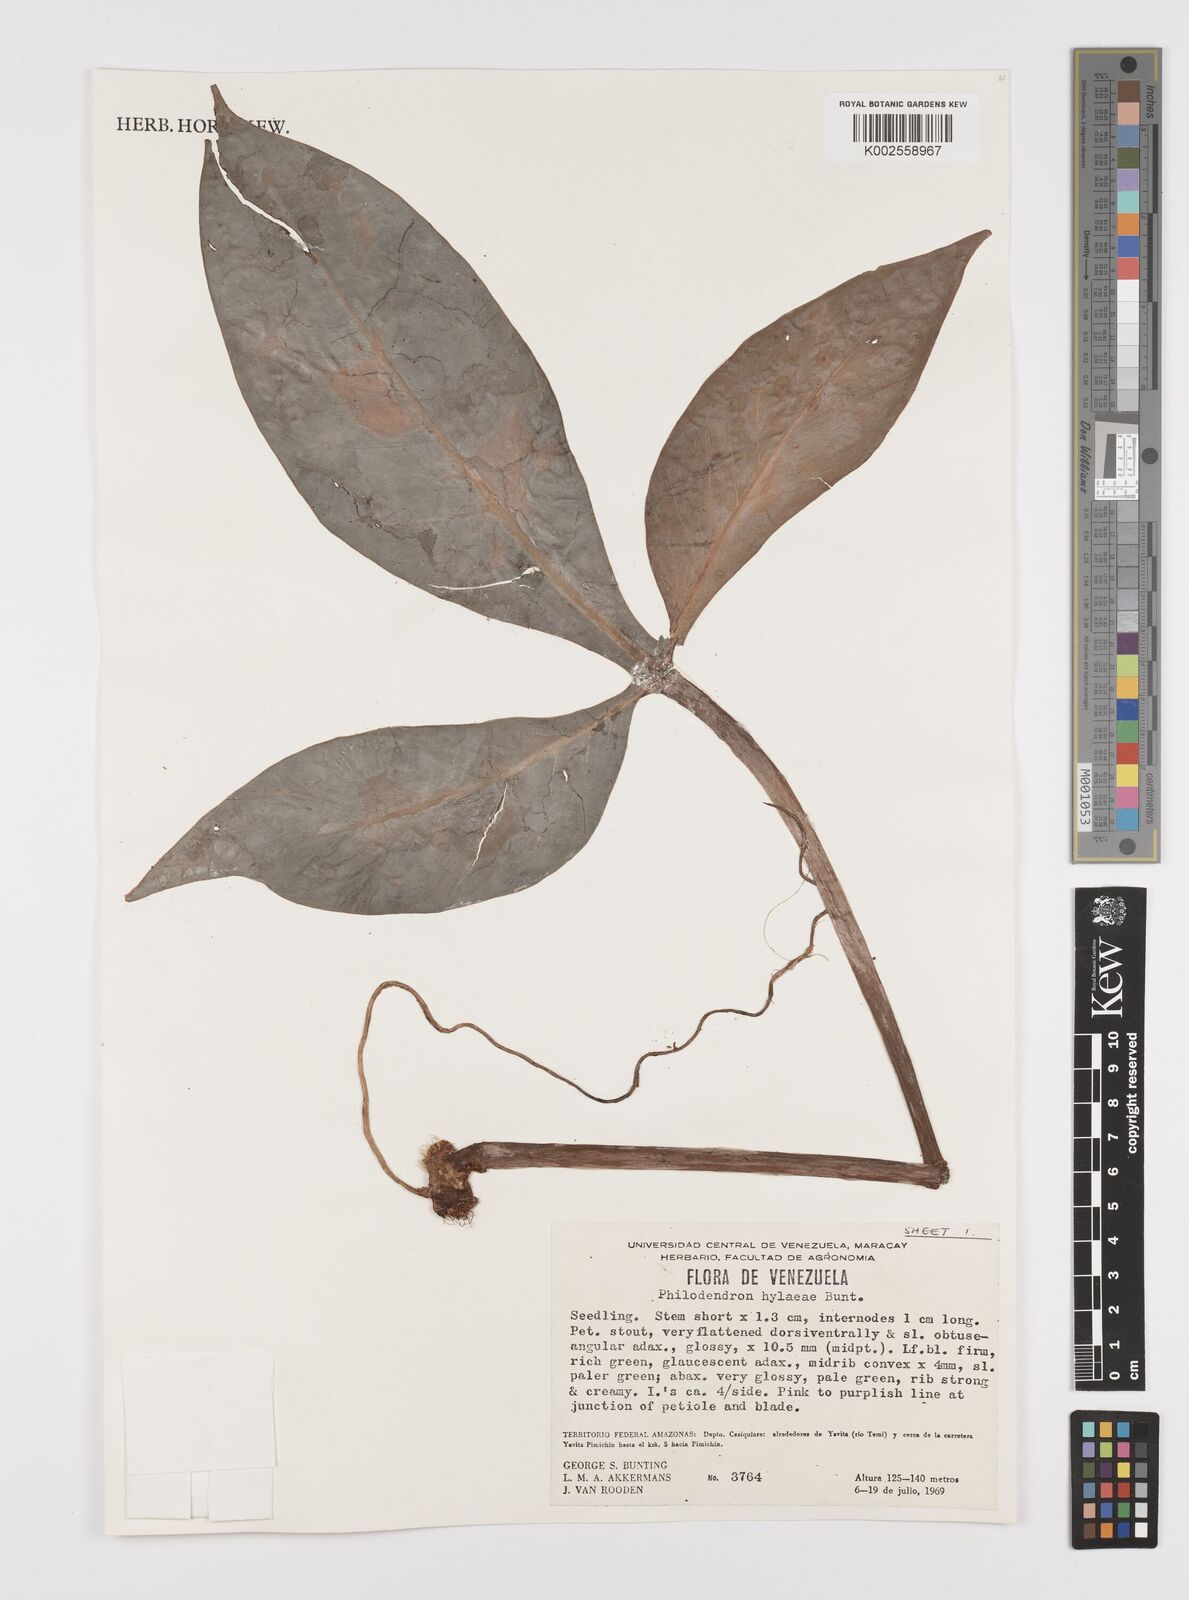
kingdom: Plantae
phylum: Tracheophyta
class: Liliopsida
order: Alismatales
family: Araceae
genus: Philodendron
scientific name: Philodendron hylaeae
